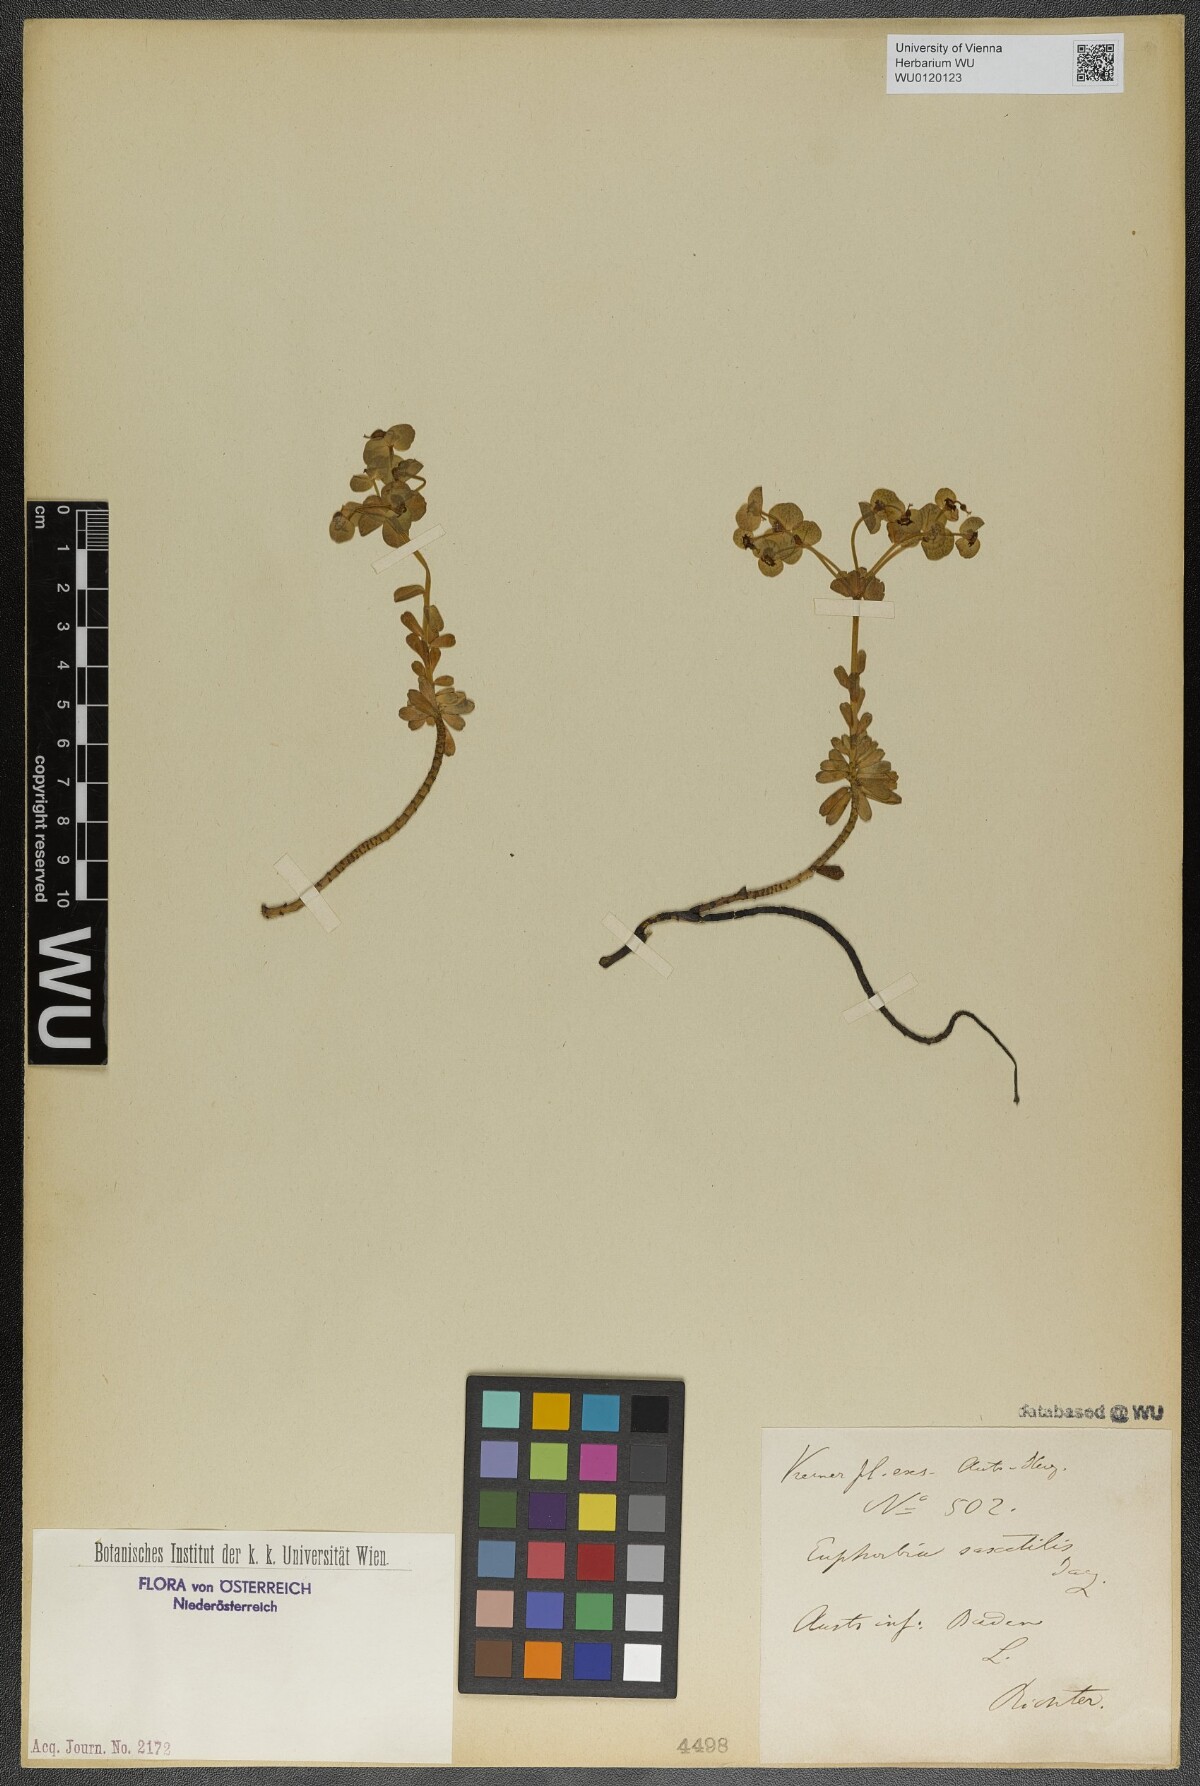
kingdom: Plantae
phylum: Tracheophyta
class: Magnoliopsida
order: Malpighiales
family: Euphorbiaceae
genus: Euphorbia
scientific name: Euphorbia saxatilis
